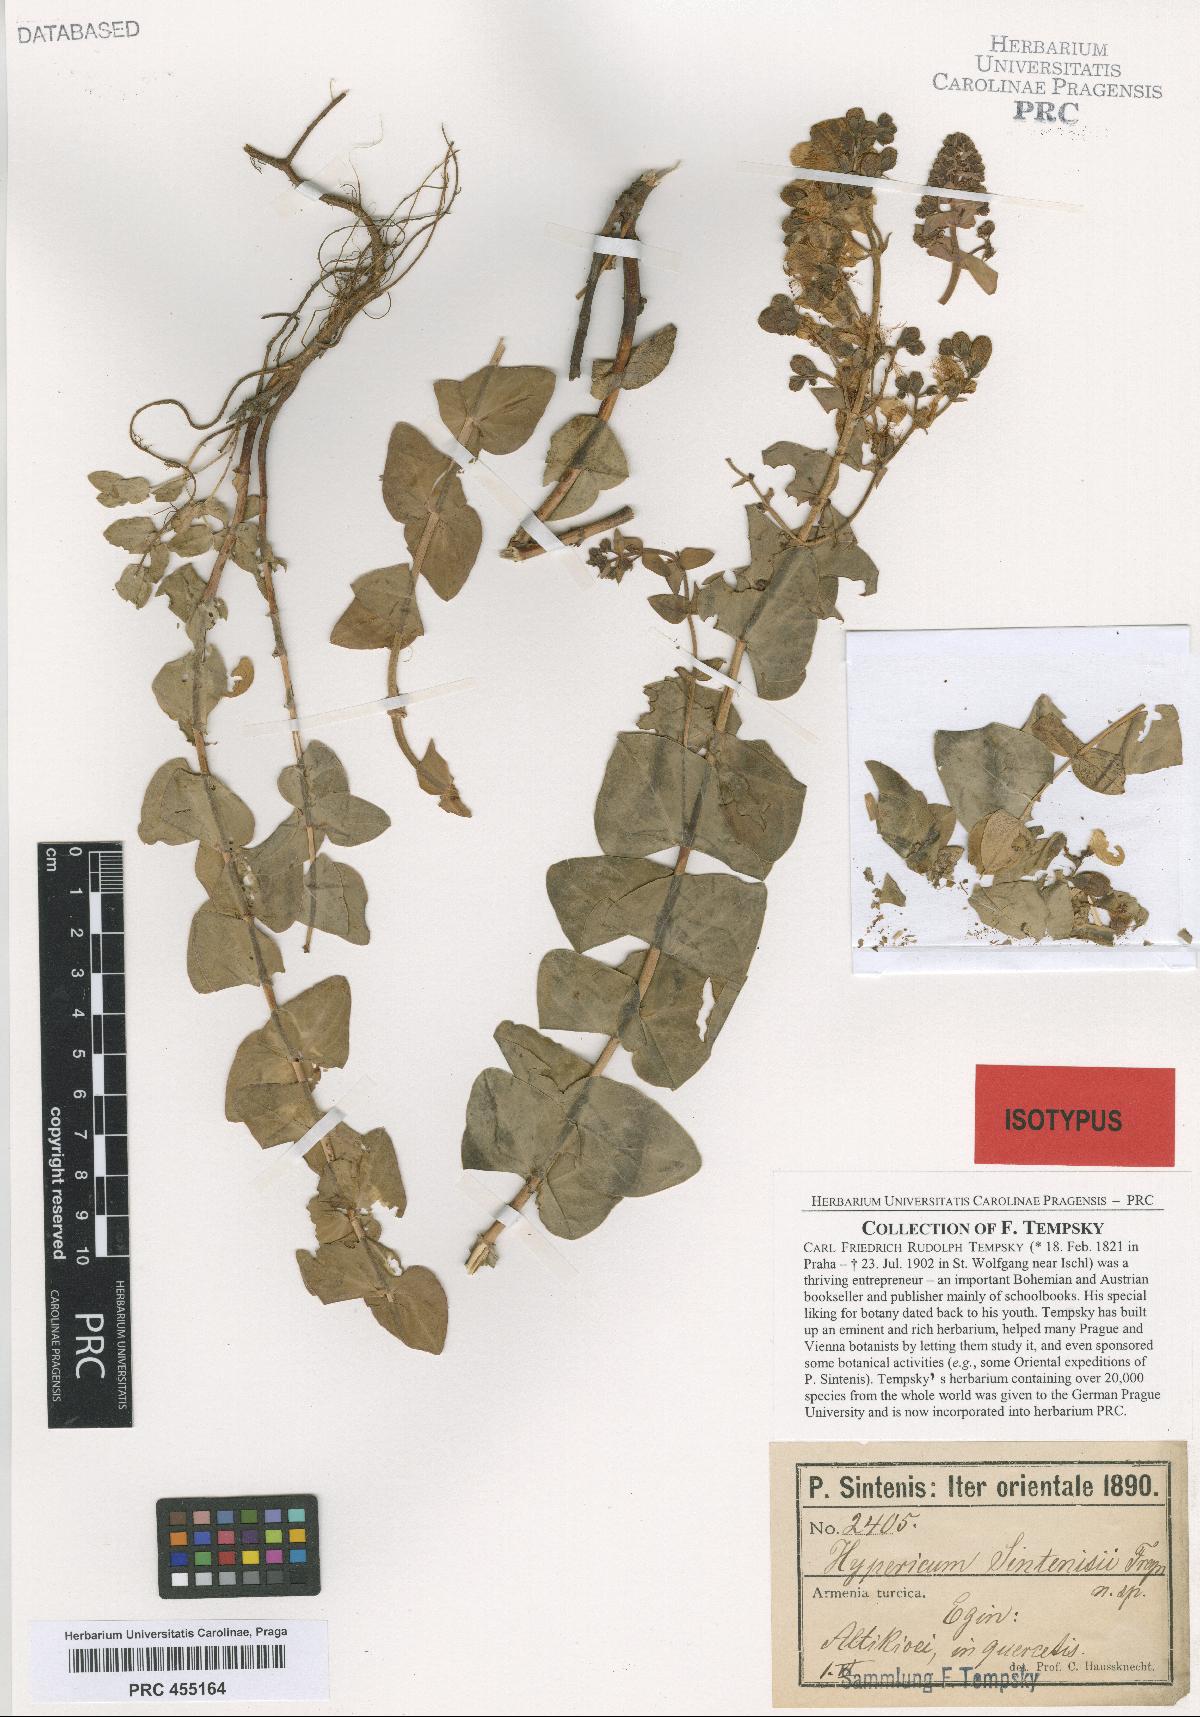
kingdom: Plantae
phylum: Tracheophyta
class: Magnoliopsida
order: Malpighiales
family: Hypericaceae
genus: Hypericum
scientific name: Hypericum spectabile
